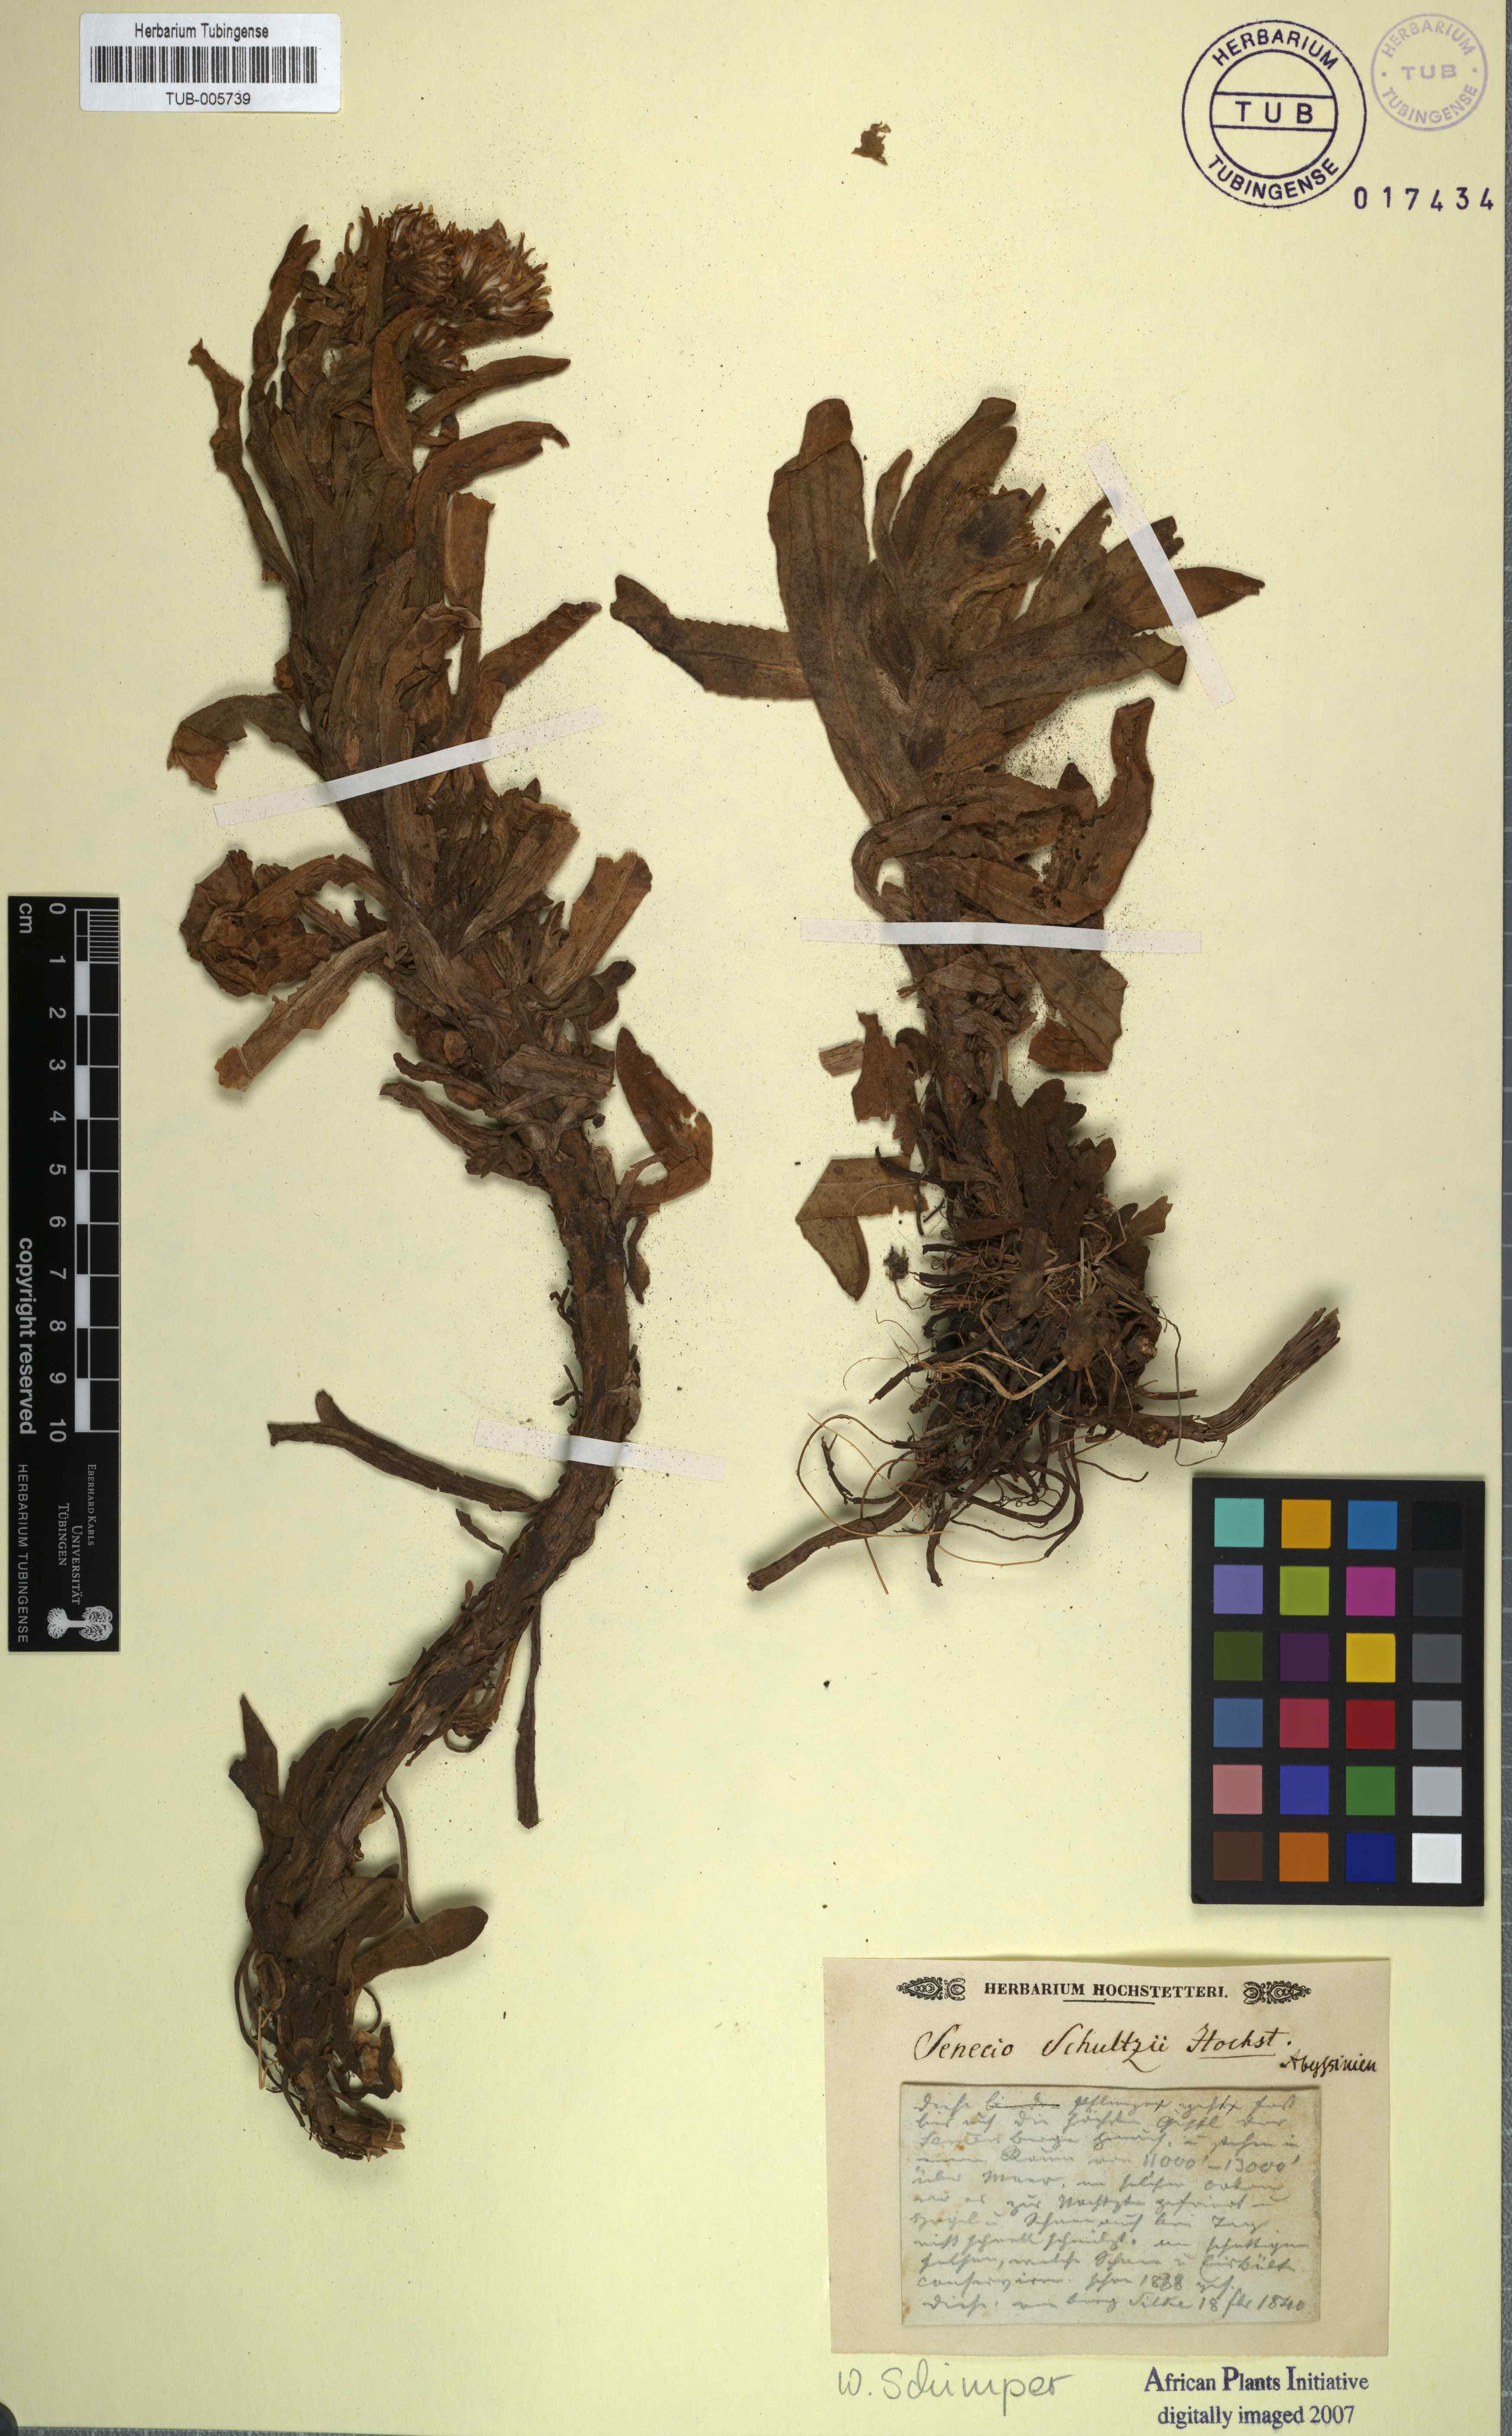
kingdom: Plantae
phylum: Tracheophyta
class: Magnoliopsida
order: Asterales
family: Asteraceae
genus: Senecio
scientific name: Senecio schultzii
